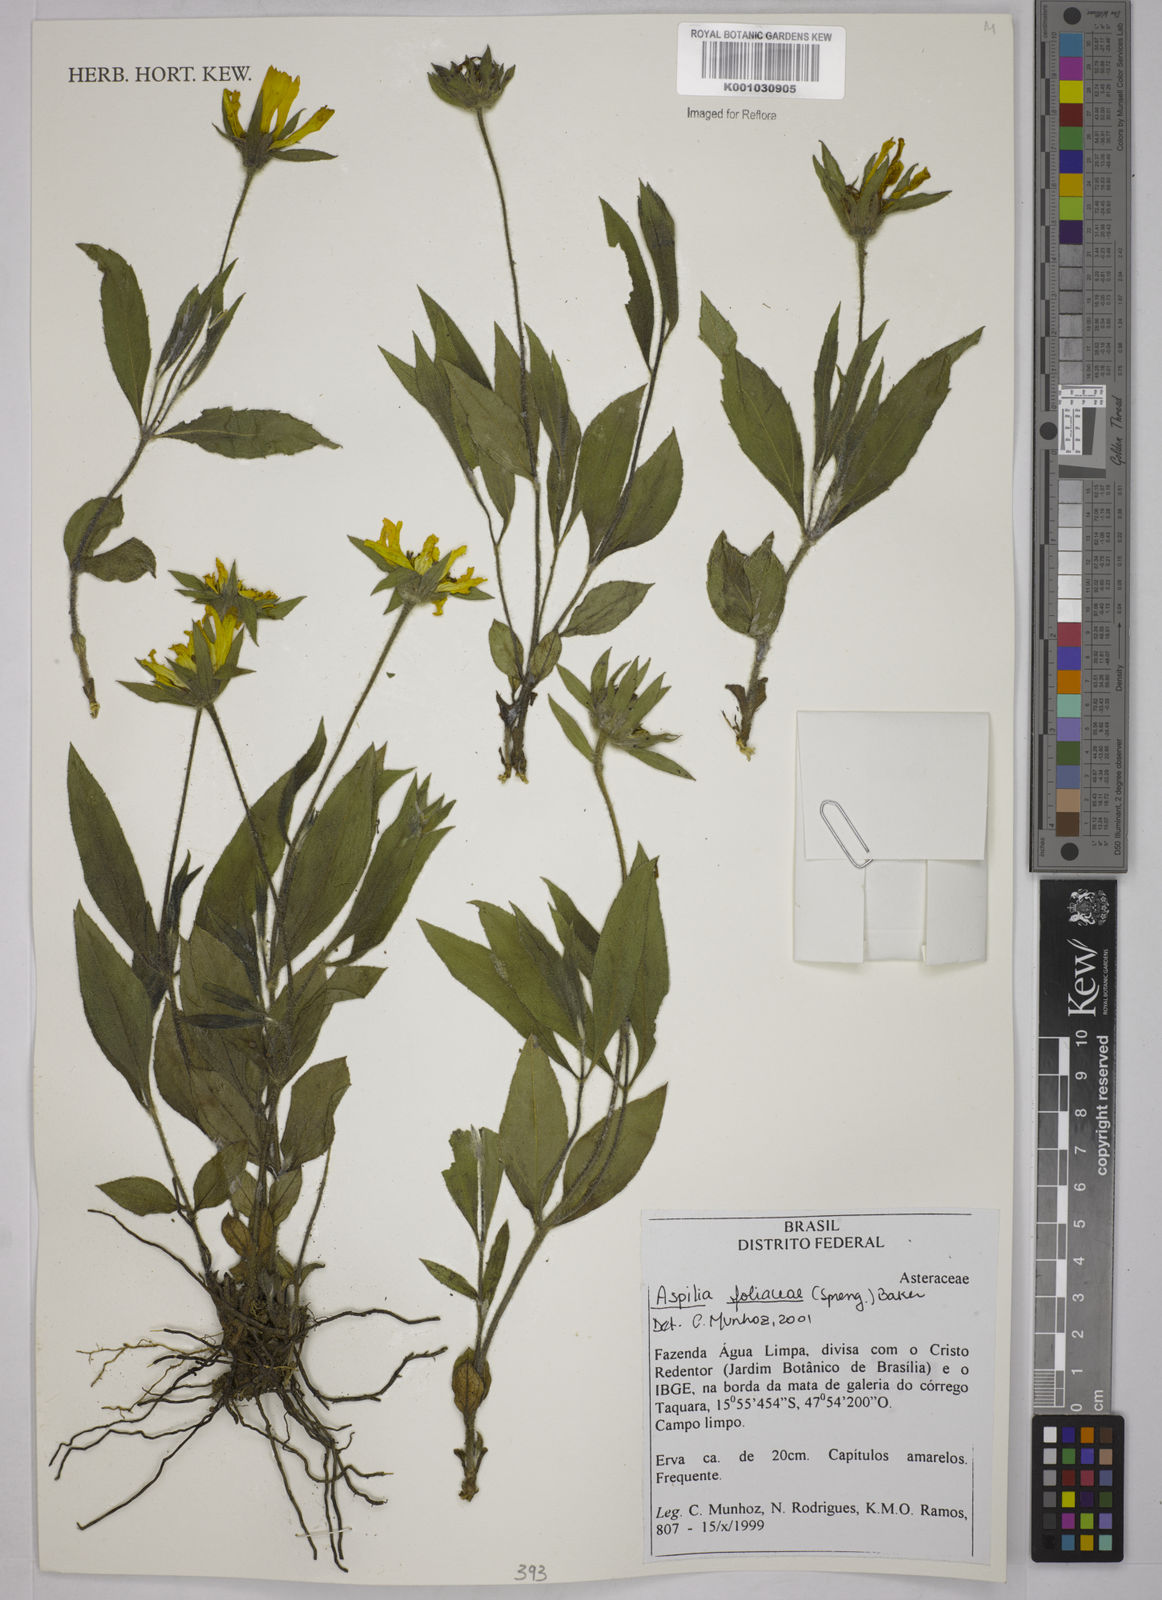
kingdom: Plantae
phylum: Tracheophyta
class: Magnoliopsida
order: Asterales
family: Asteraceae
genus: Wedelia
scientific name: Wedelia foliacea
